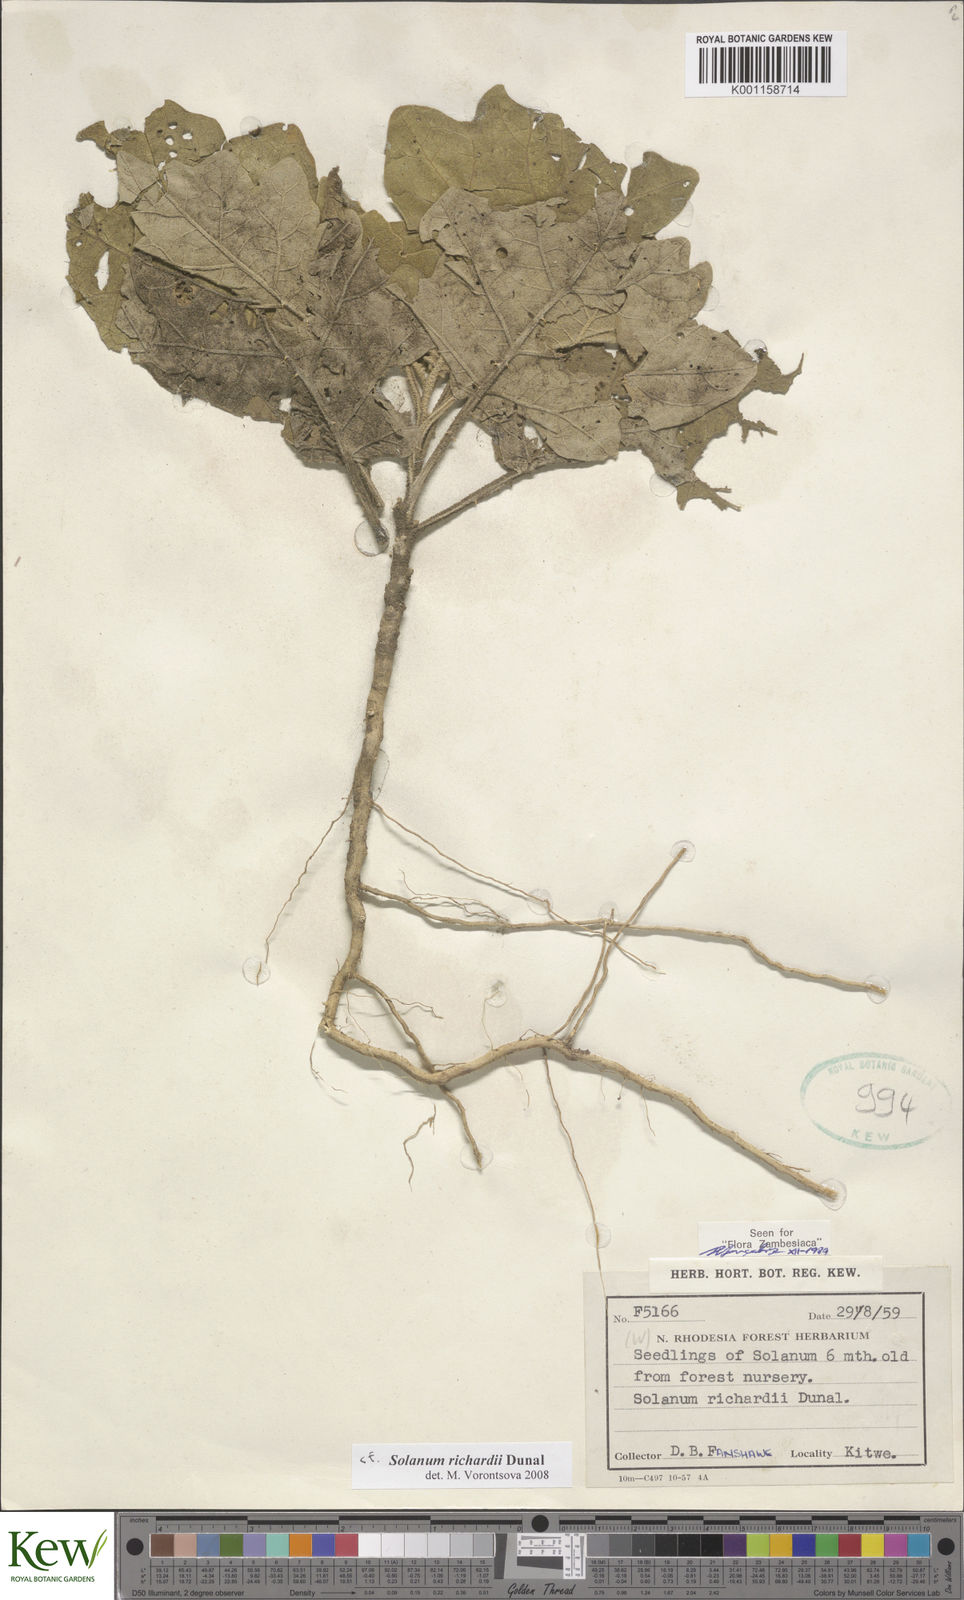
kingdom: Plantae
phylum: Tracheophyta
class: Magnoliopsida
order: Solanales
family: Solanaceae
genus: Solanum
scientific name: Solanum richardii
